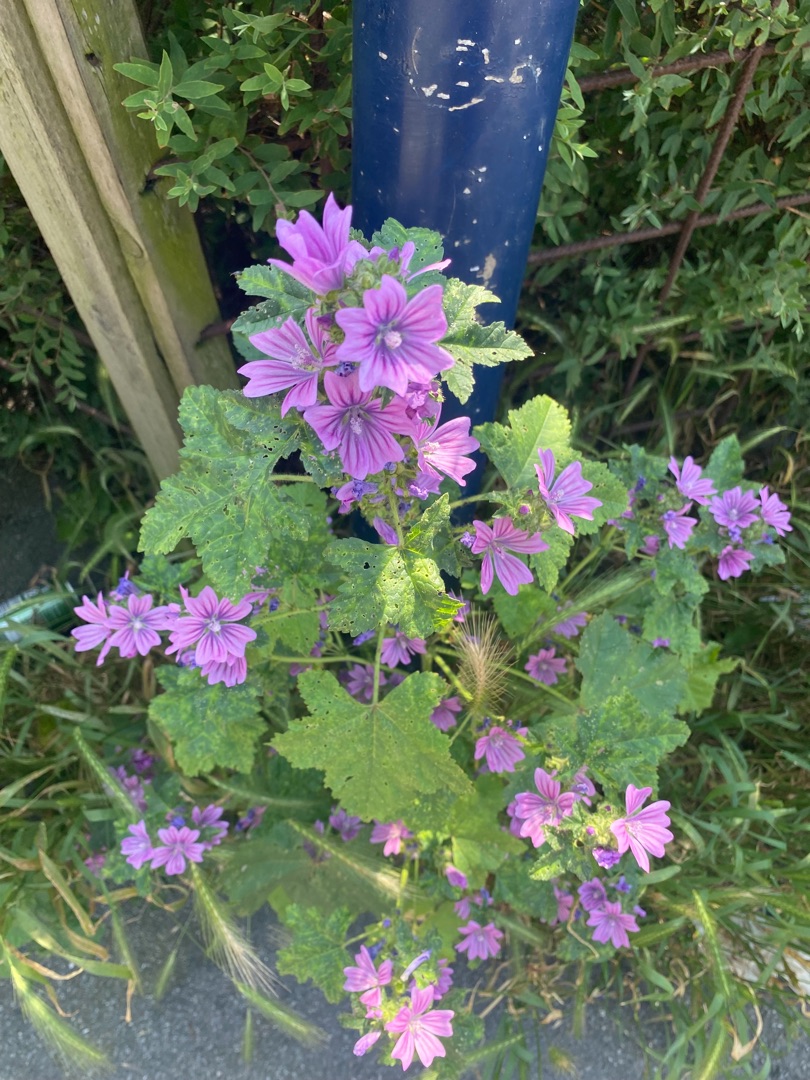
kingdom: Plantae
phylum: Tracheophyta
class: Magnoliopsida
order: Malvales
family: Malvaceae
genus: Malva
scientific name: Malva sylvestris
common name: Almindelig katost
